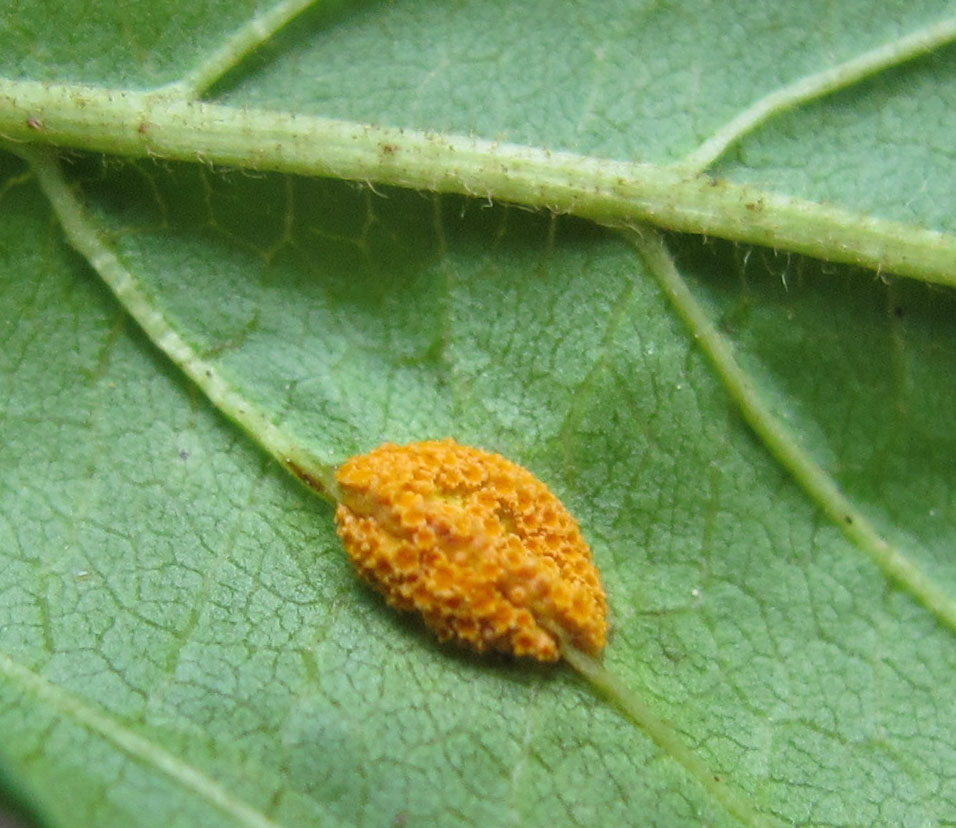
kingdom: Fungi
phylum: Basidiomycota
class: Pucciniomycetes
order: Pucciniales
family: Pucciniaceae
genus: Puccinia
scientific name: Puccinia coronata
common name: Crown rust
